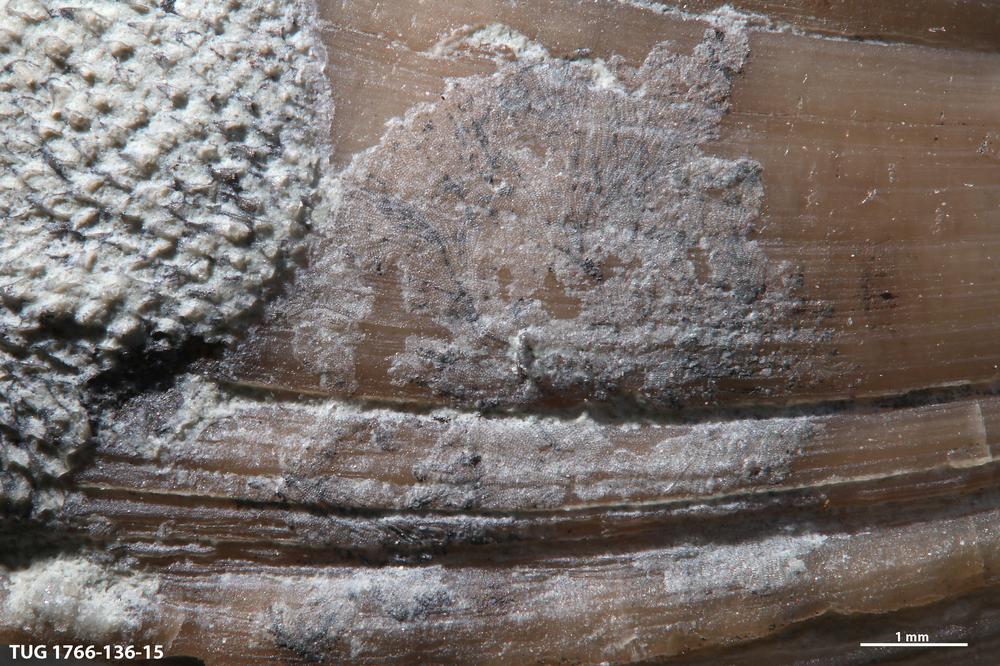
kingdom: Animalia
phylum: Bryozoa
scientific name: Bryozoa
